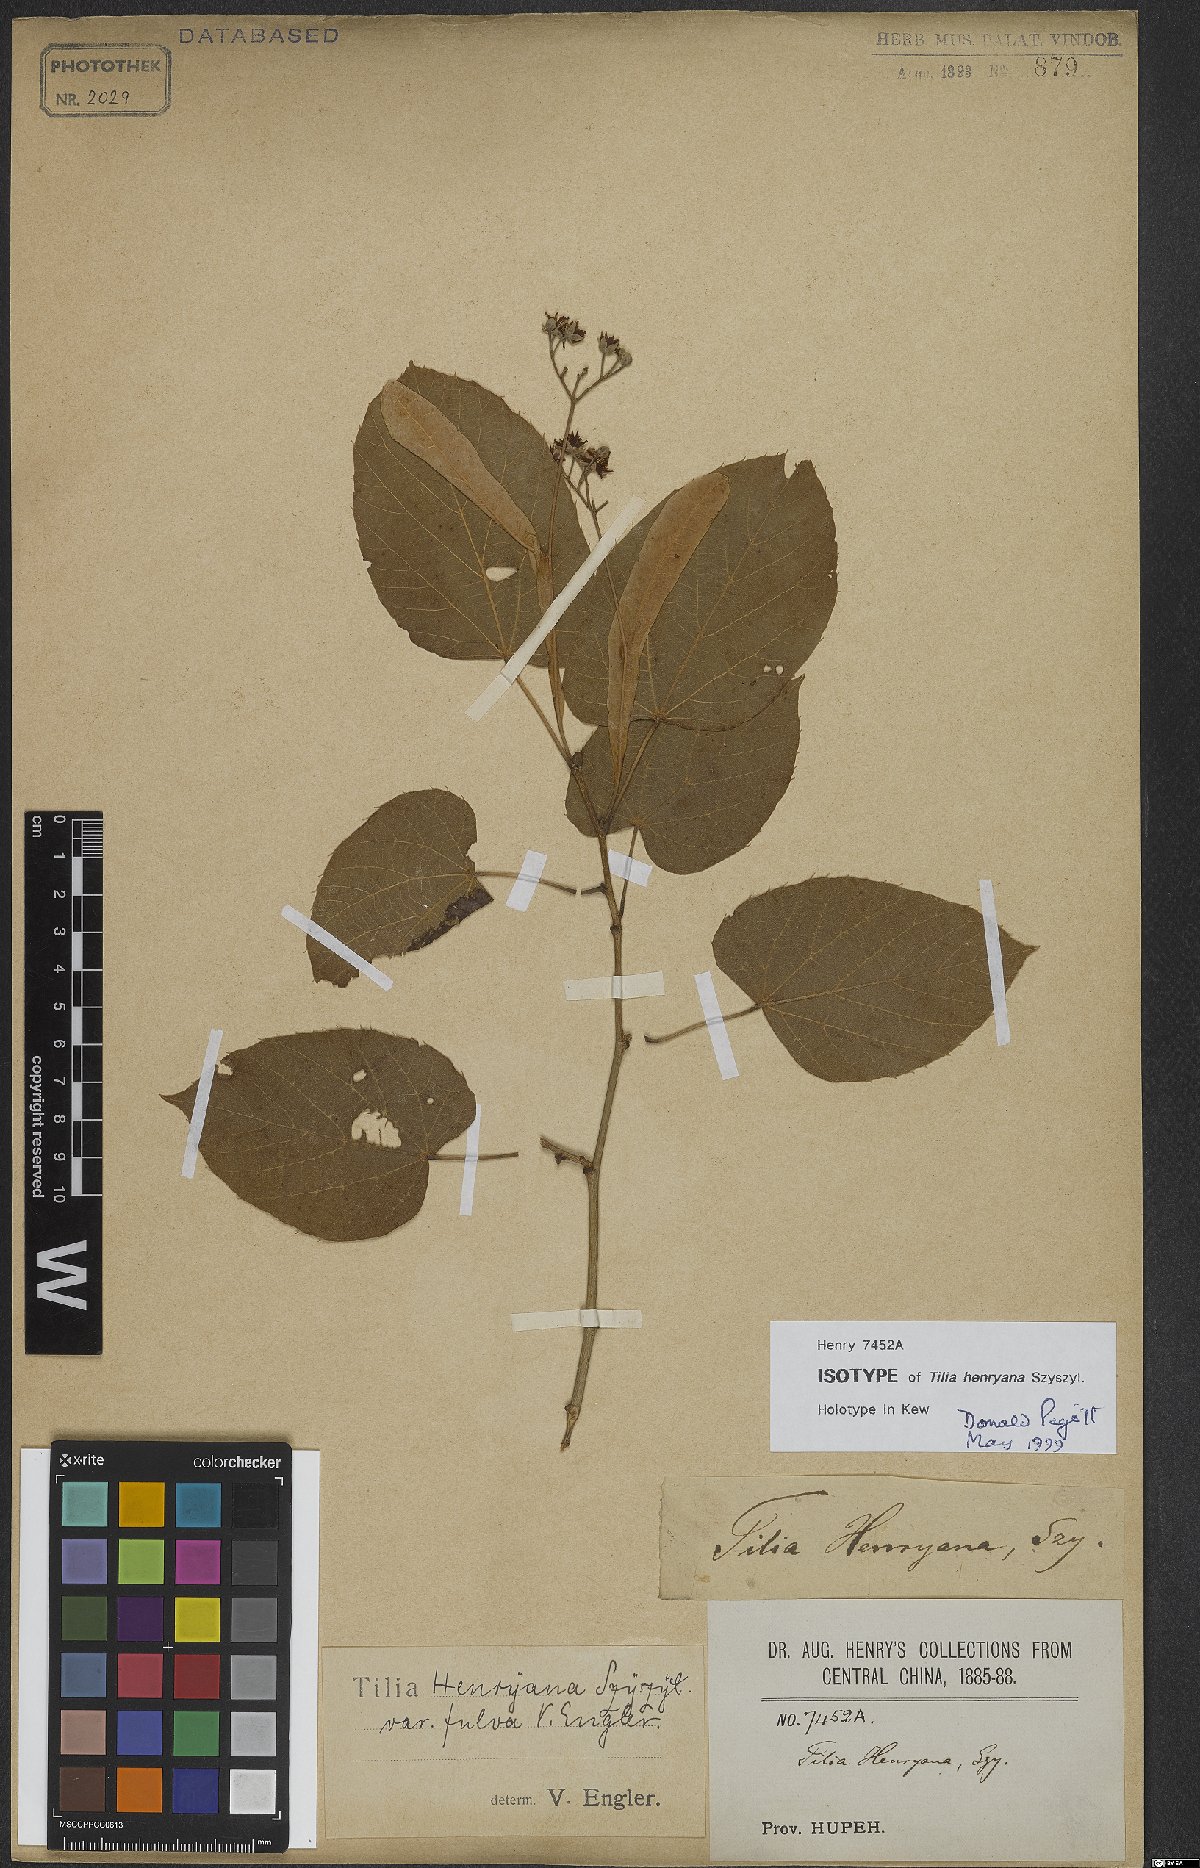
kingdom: Plantae
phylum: Tracheophyta
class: Magnoliopsida
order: Malvales
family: Malvaceae
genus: Tilia
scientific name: Tilia henryana
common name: Henry's lime
